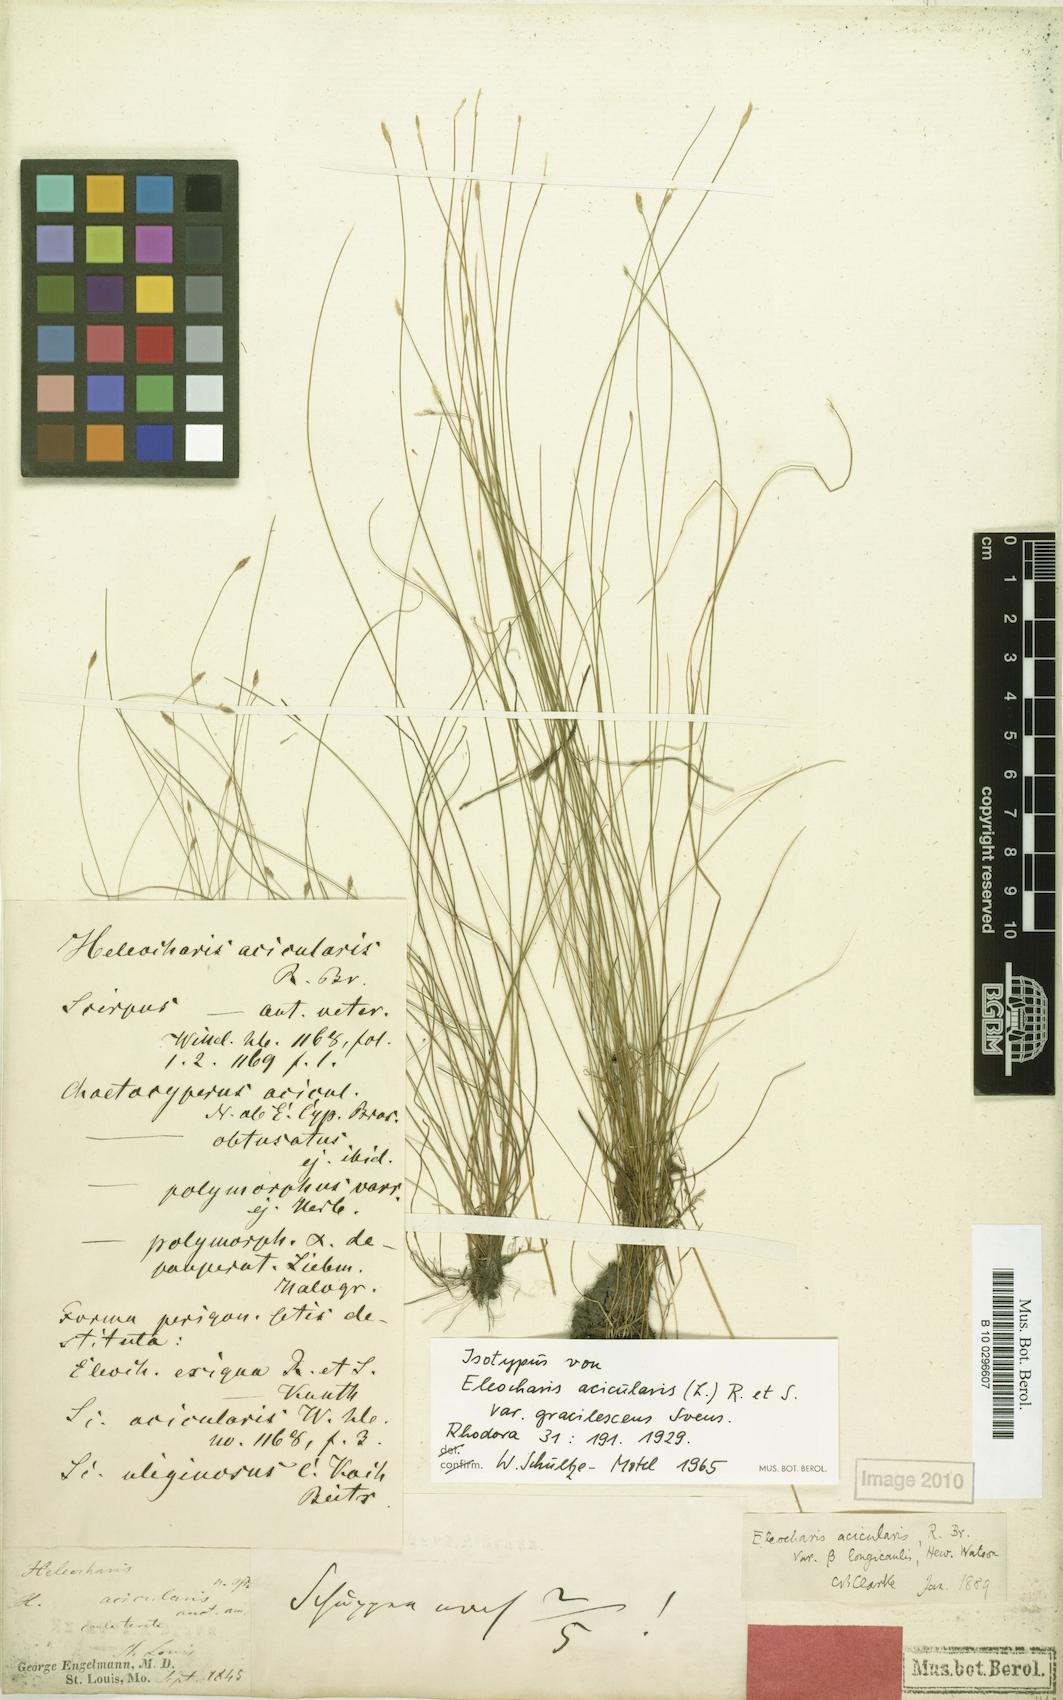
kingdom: Plantae
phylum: Tracheophyta
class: Liliopsida
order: Poales
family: Cyperaceae
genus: Eleocharis
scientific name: Eleocharis acicularis
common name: Needle spike-rush
